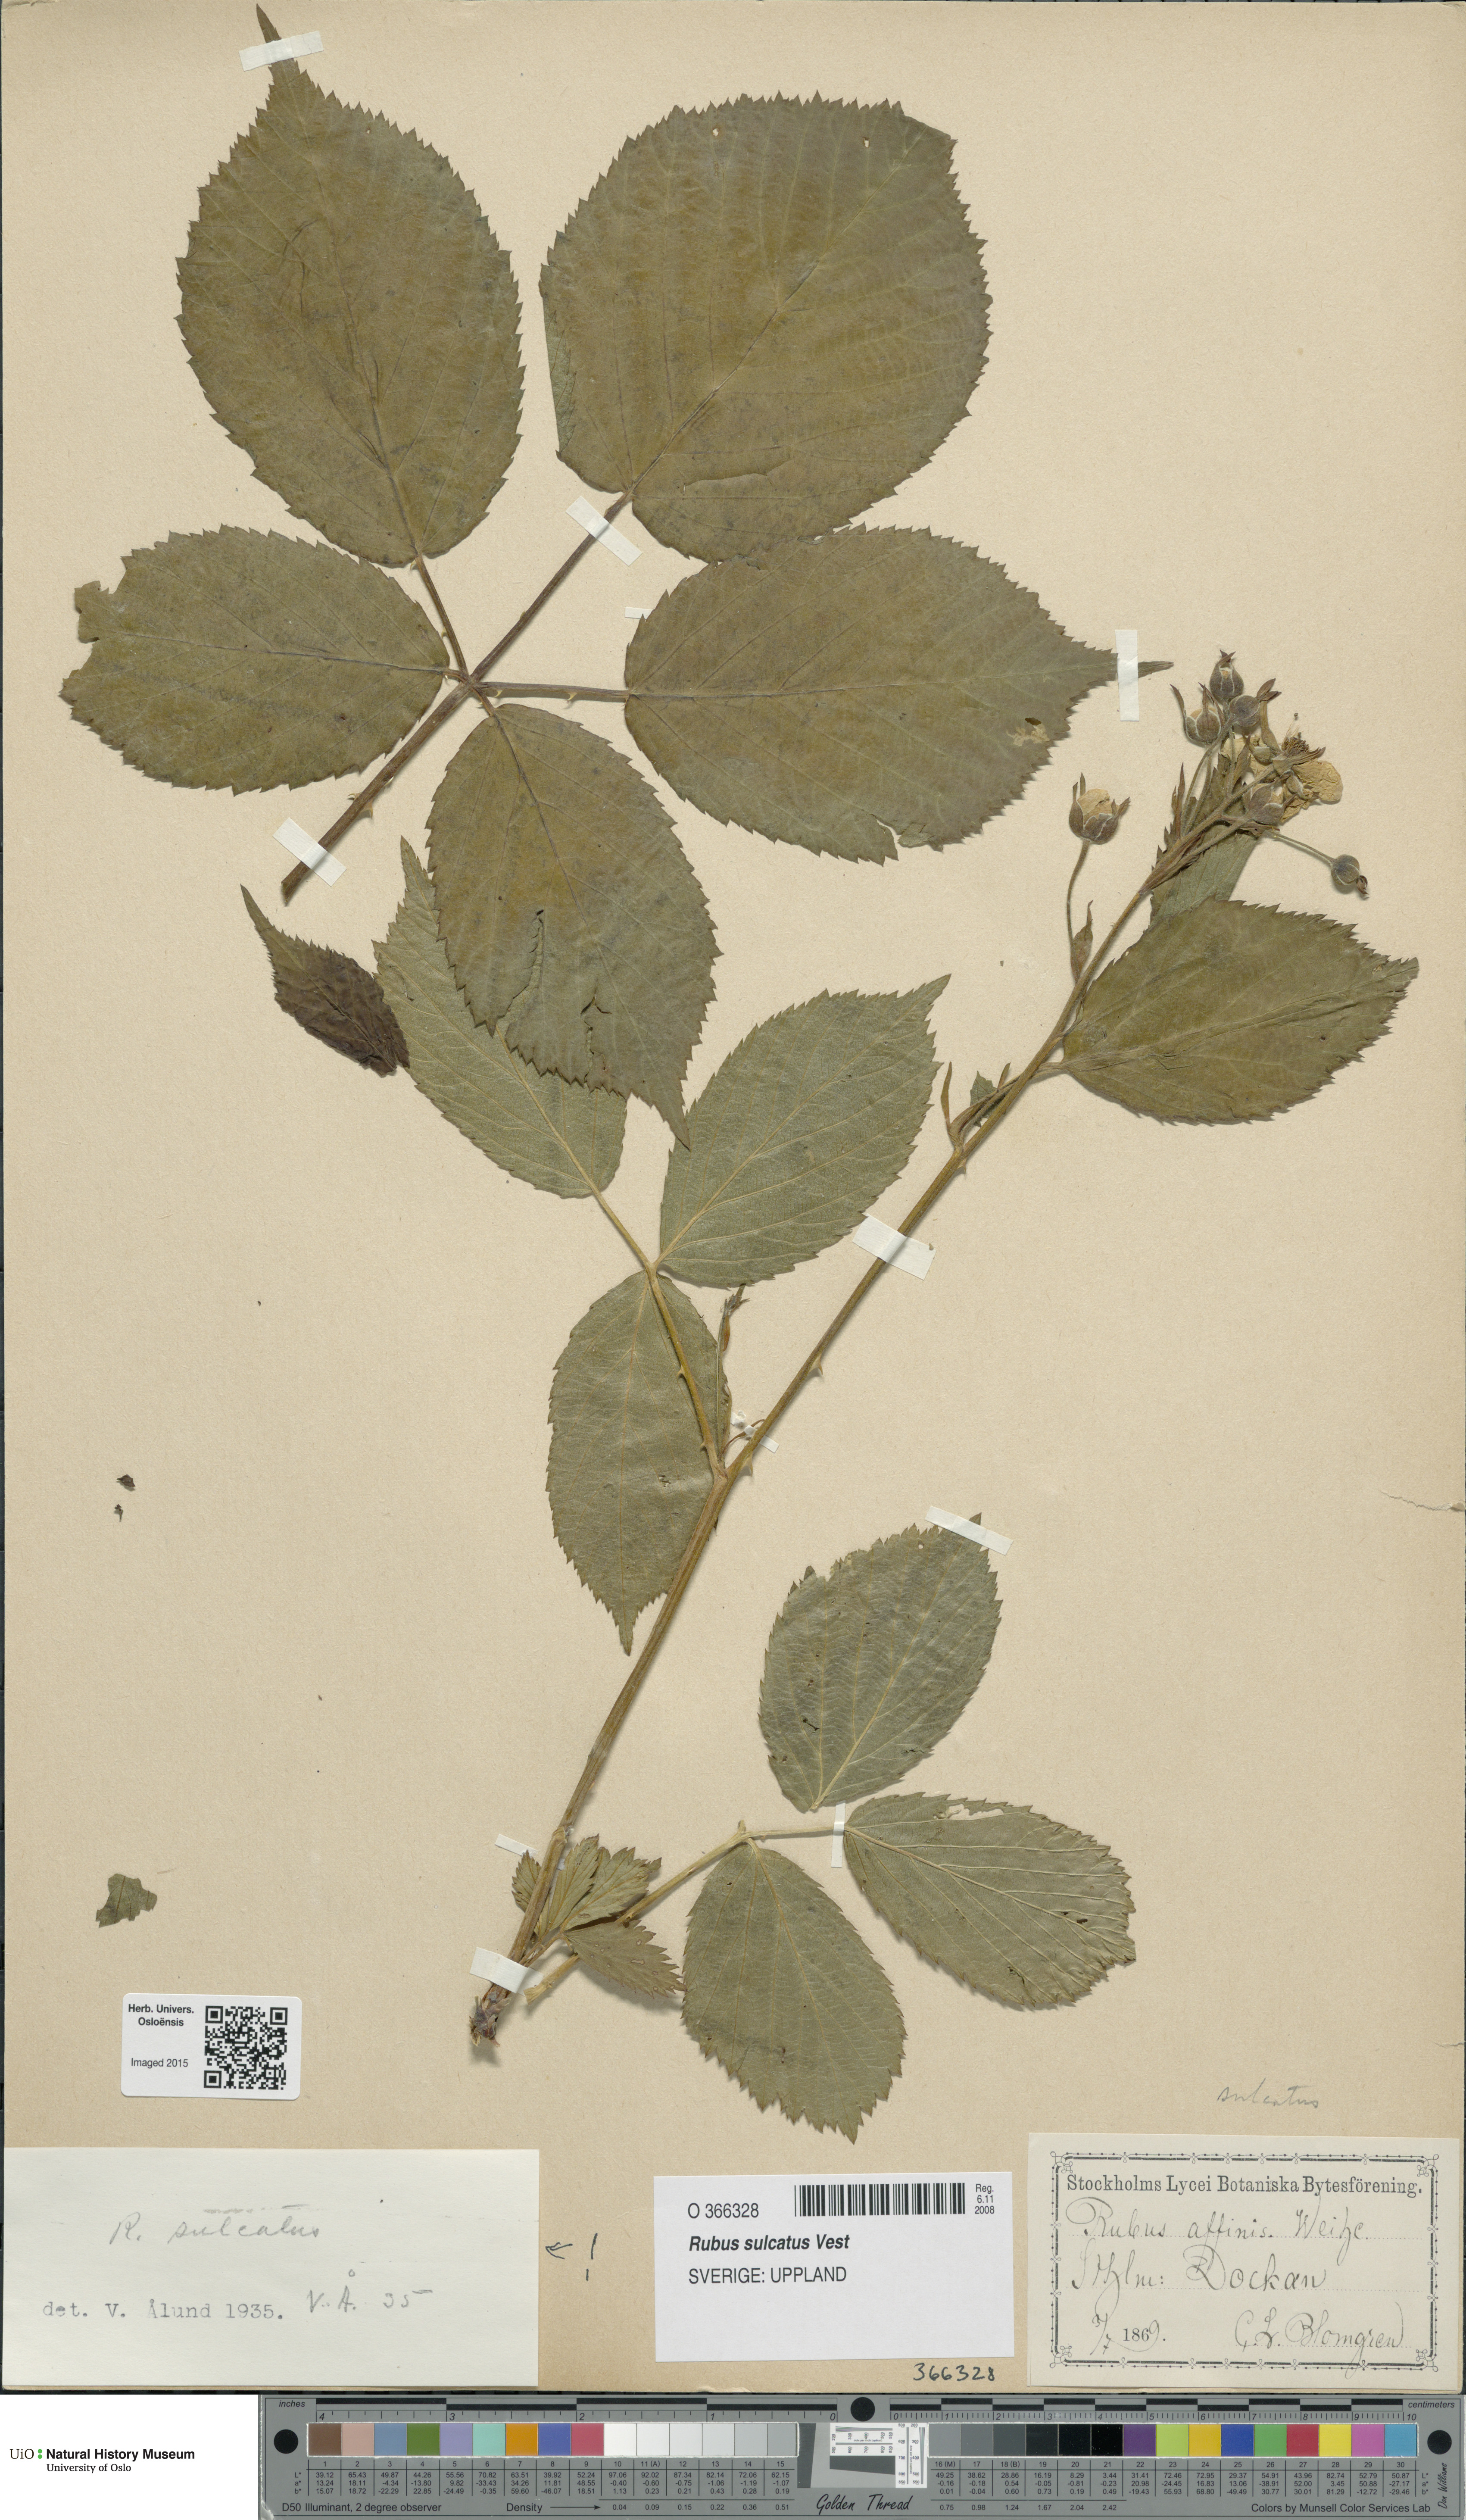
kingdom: Plantae
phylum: Tracheophyta
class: Magnoliopsida
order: Rosales
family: Rosaceae
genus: Rubus
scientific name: Rubus sulcatus
